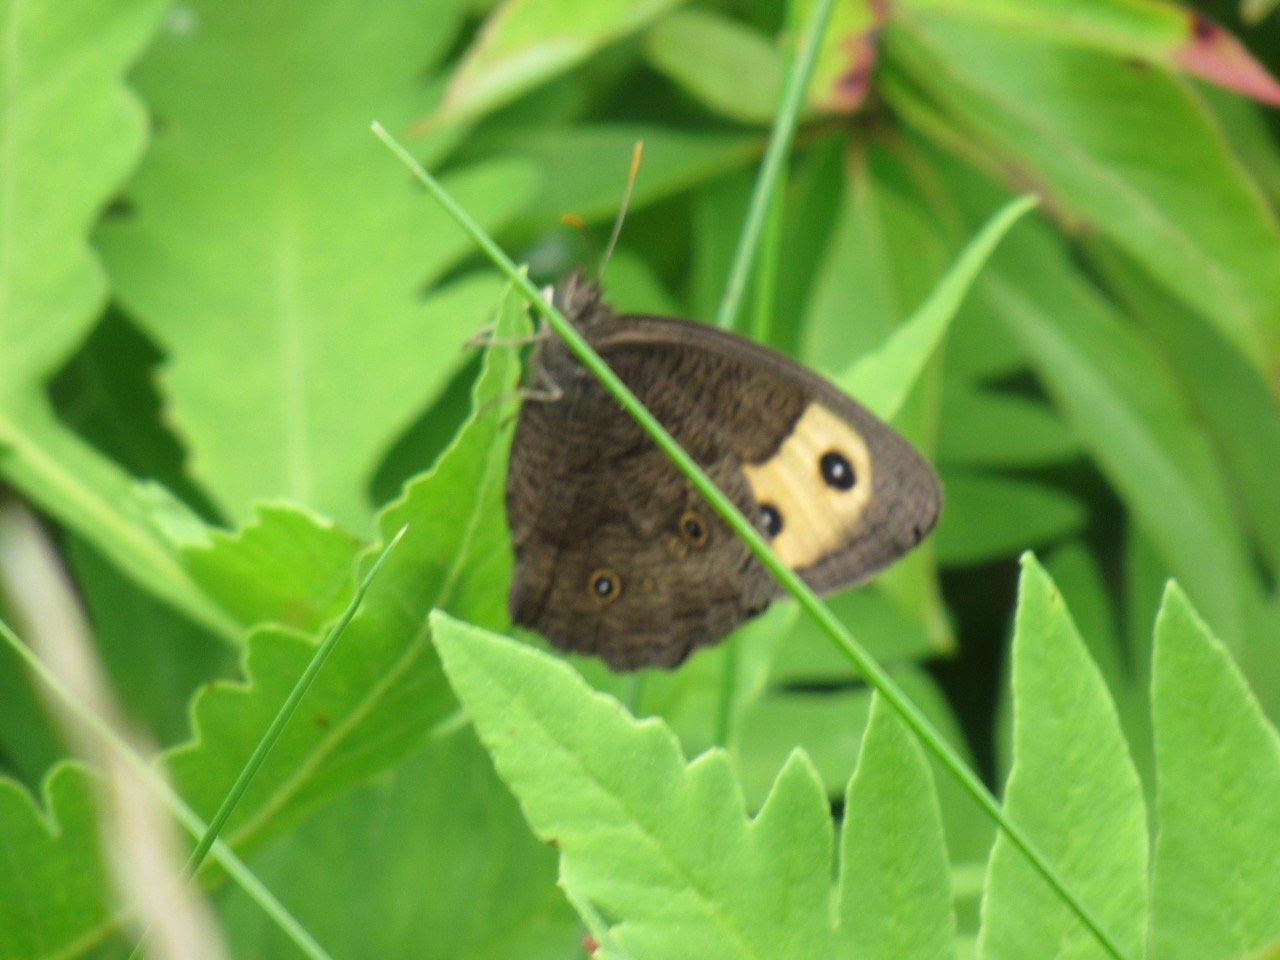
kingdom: Animalia
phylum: Arthropoda
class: Insecta
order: Lepidoptera
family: Nymphalidae
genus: Cercyonis
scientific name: Cercyonis pegala
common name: Common Wood-Nymph
